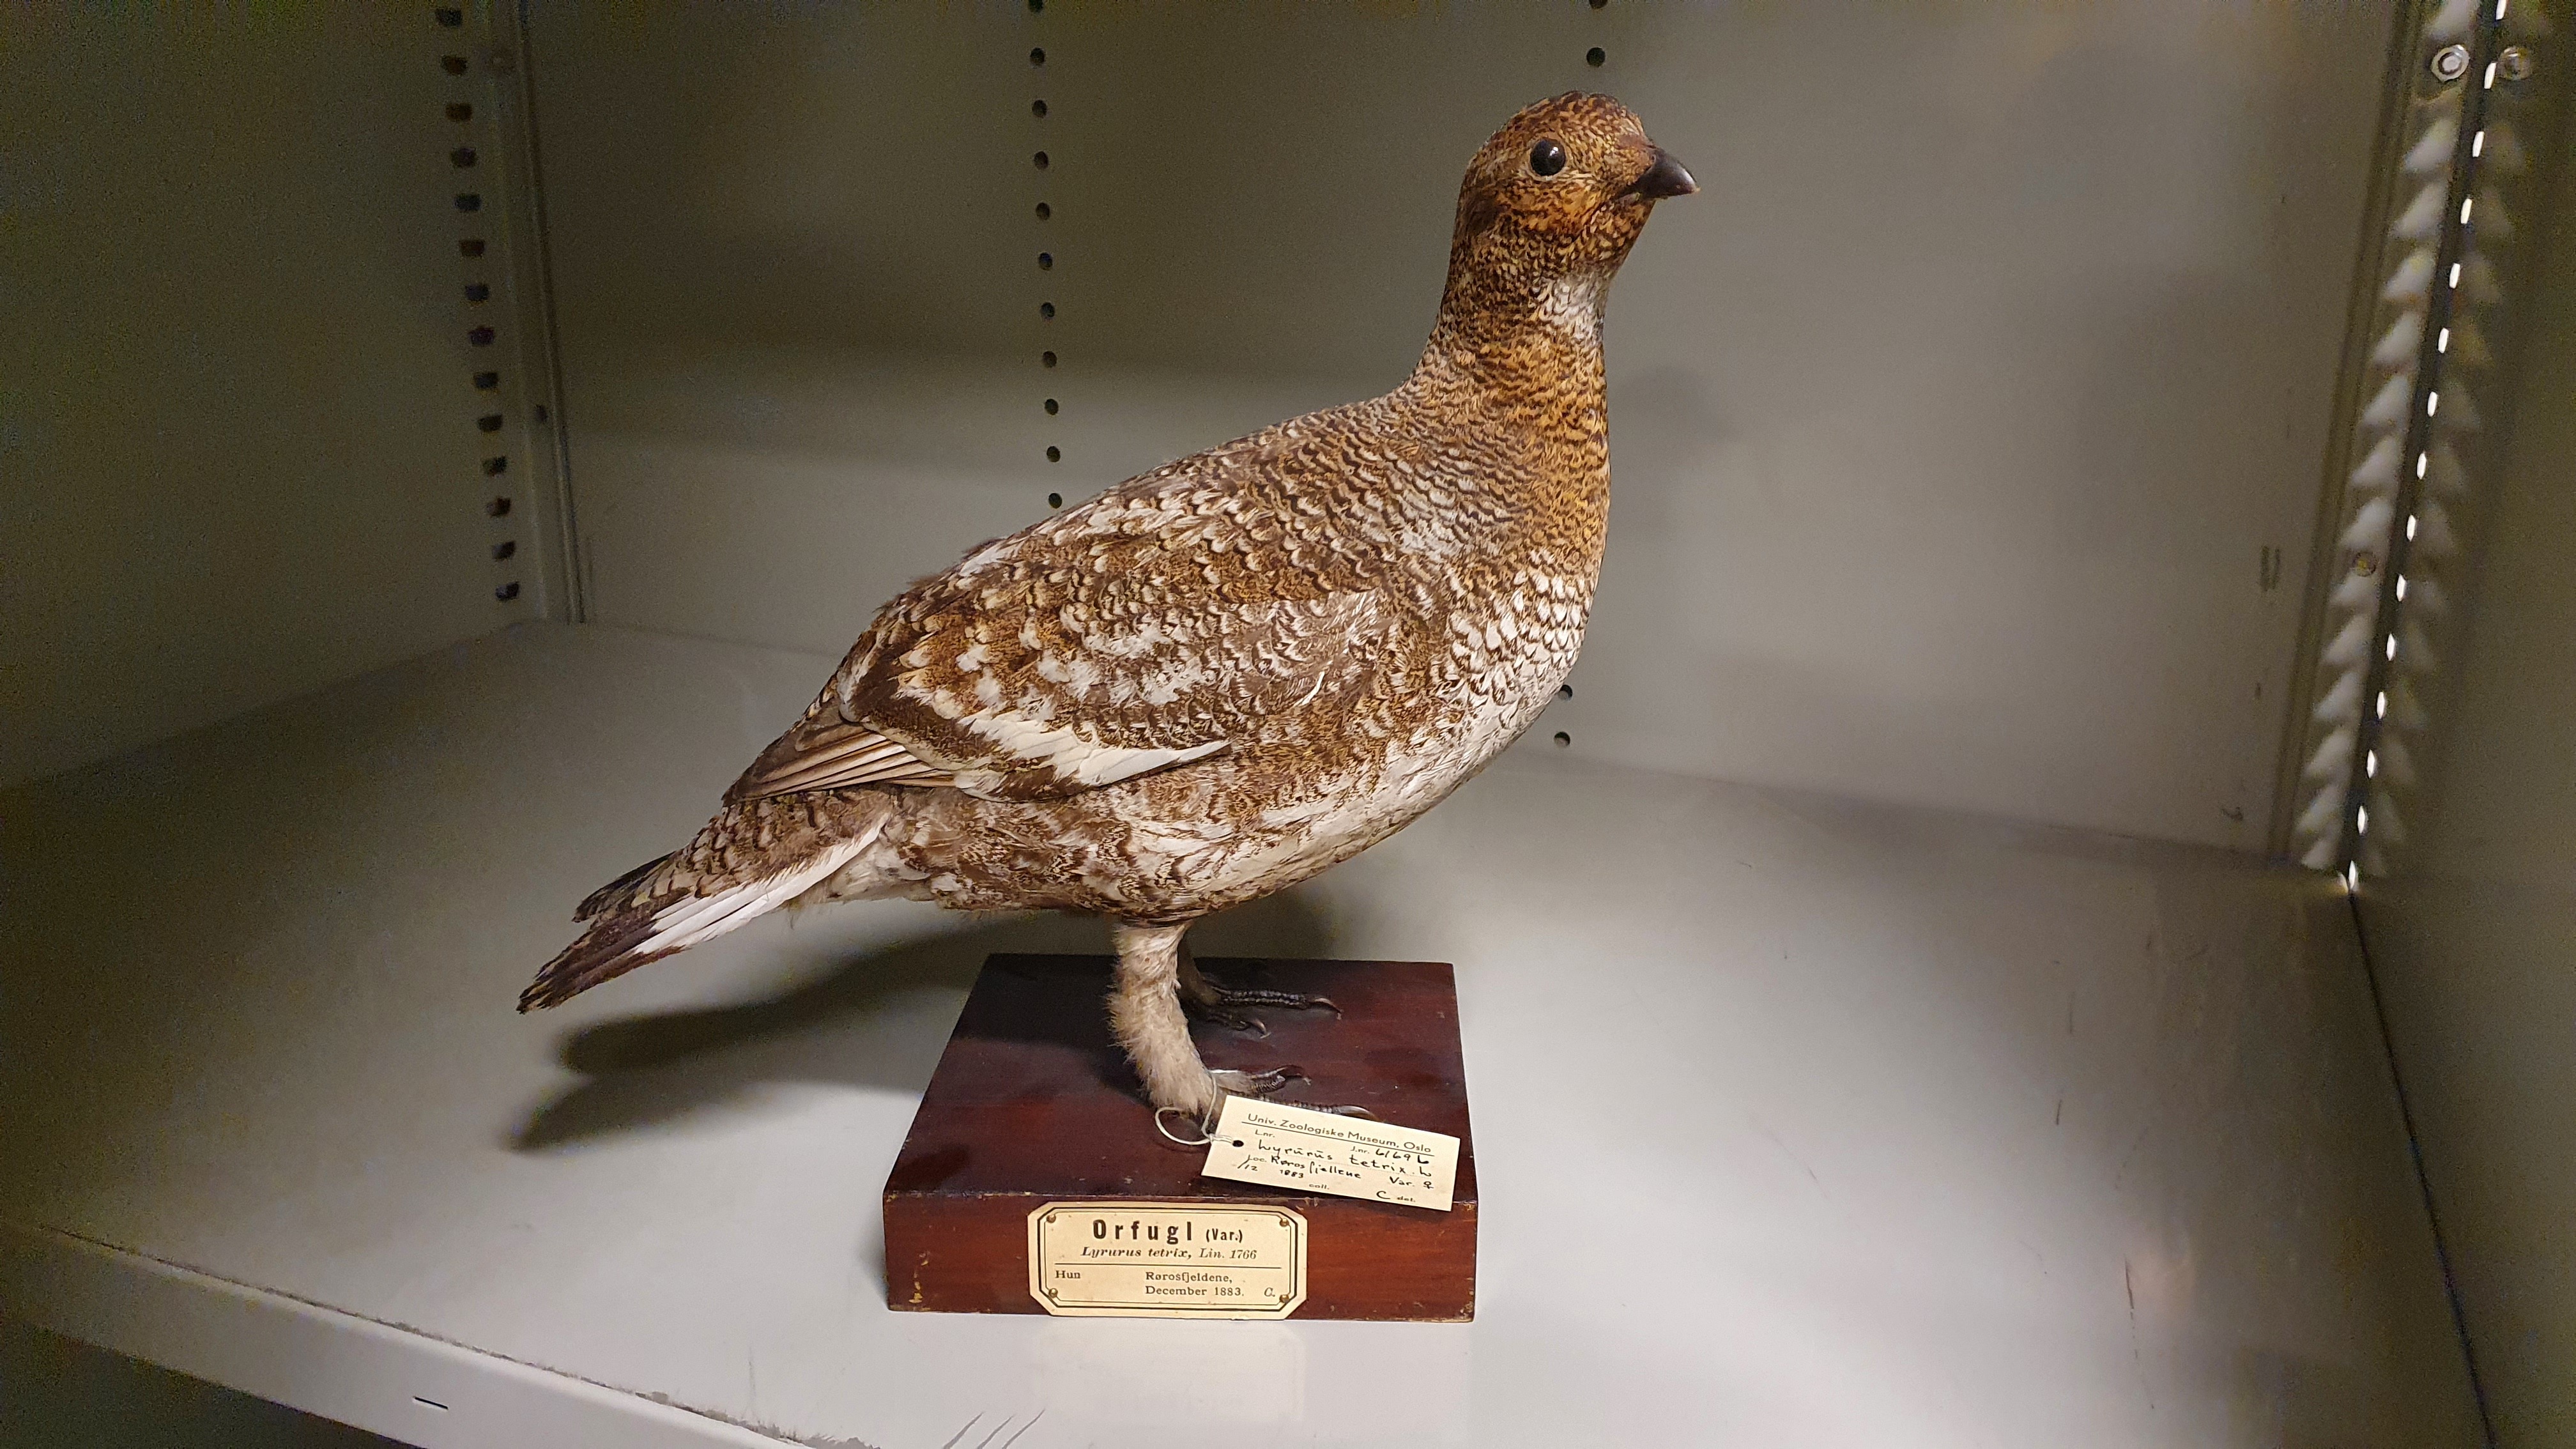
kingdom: Animalia
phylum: Chordata
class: Aves
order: Galliformes
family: Phasianidae
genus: Lyrurus
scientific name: Lyrurus tetrix
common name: Black grouse
